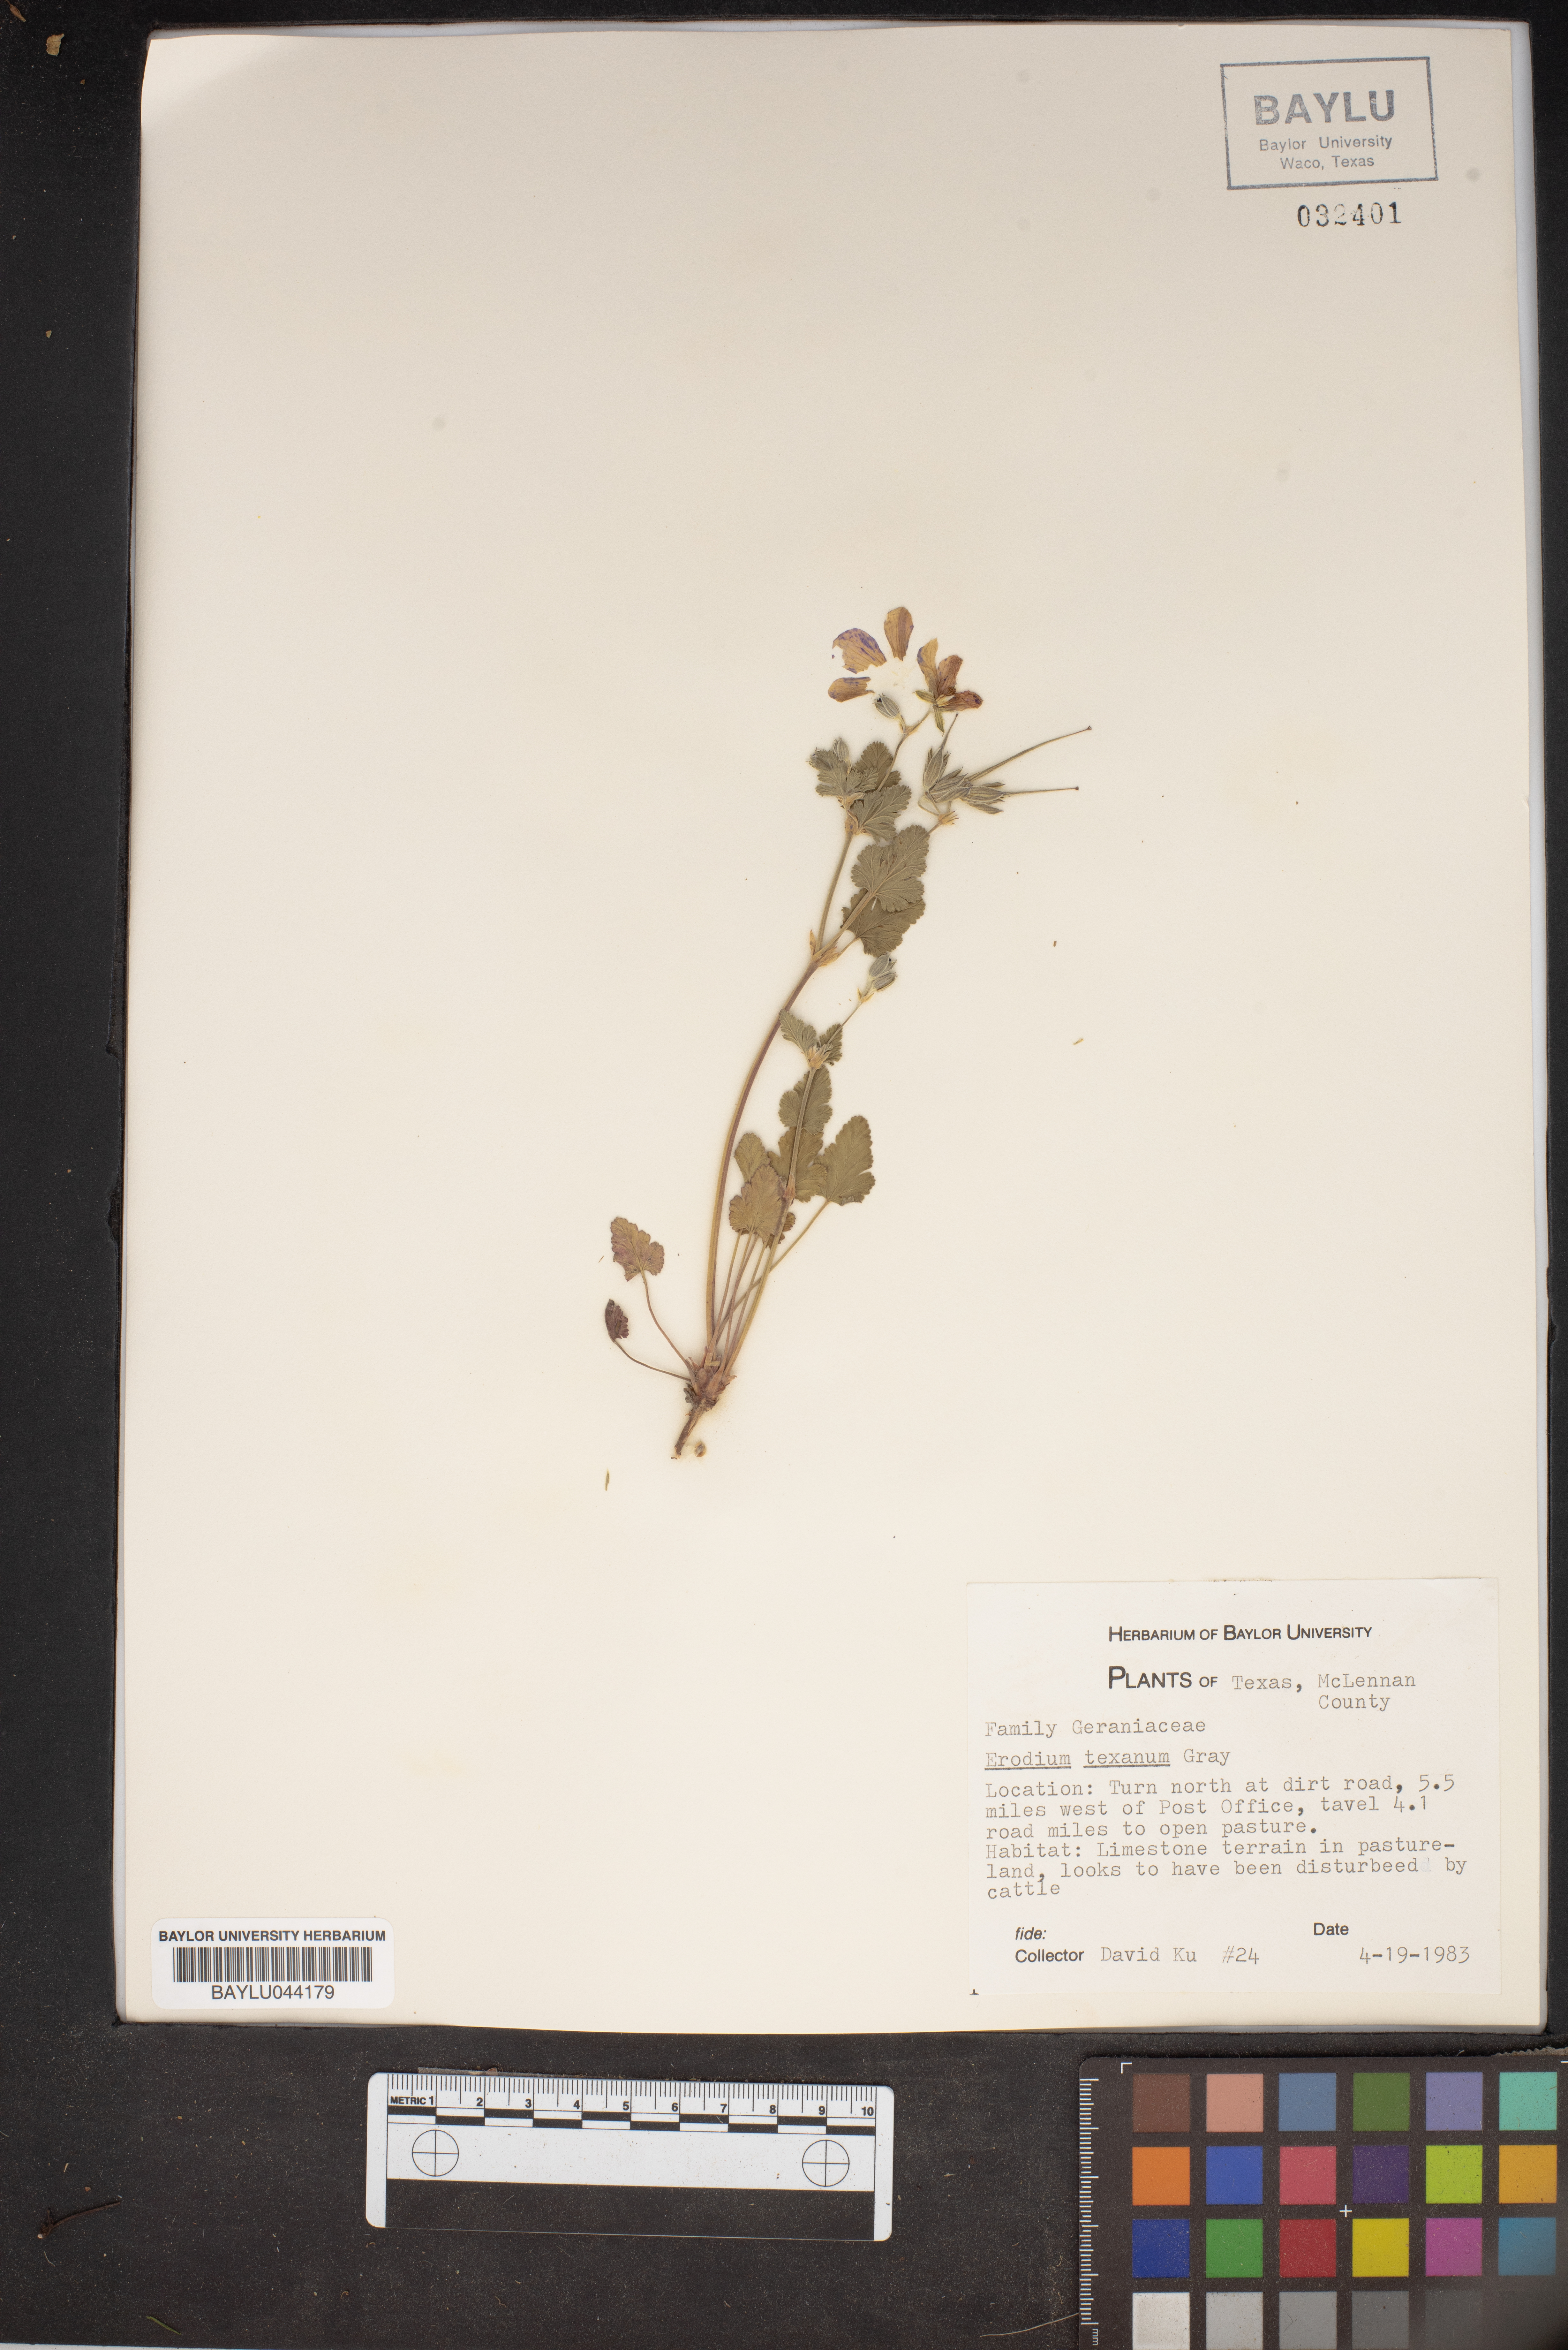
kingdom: Plantae
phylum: Tracheophyta
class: Magnoliopsida
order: Geraniales
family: Geraniaceae
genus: Erodium
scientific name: Erodium texanum
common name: Texas stork's-bill
